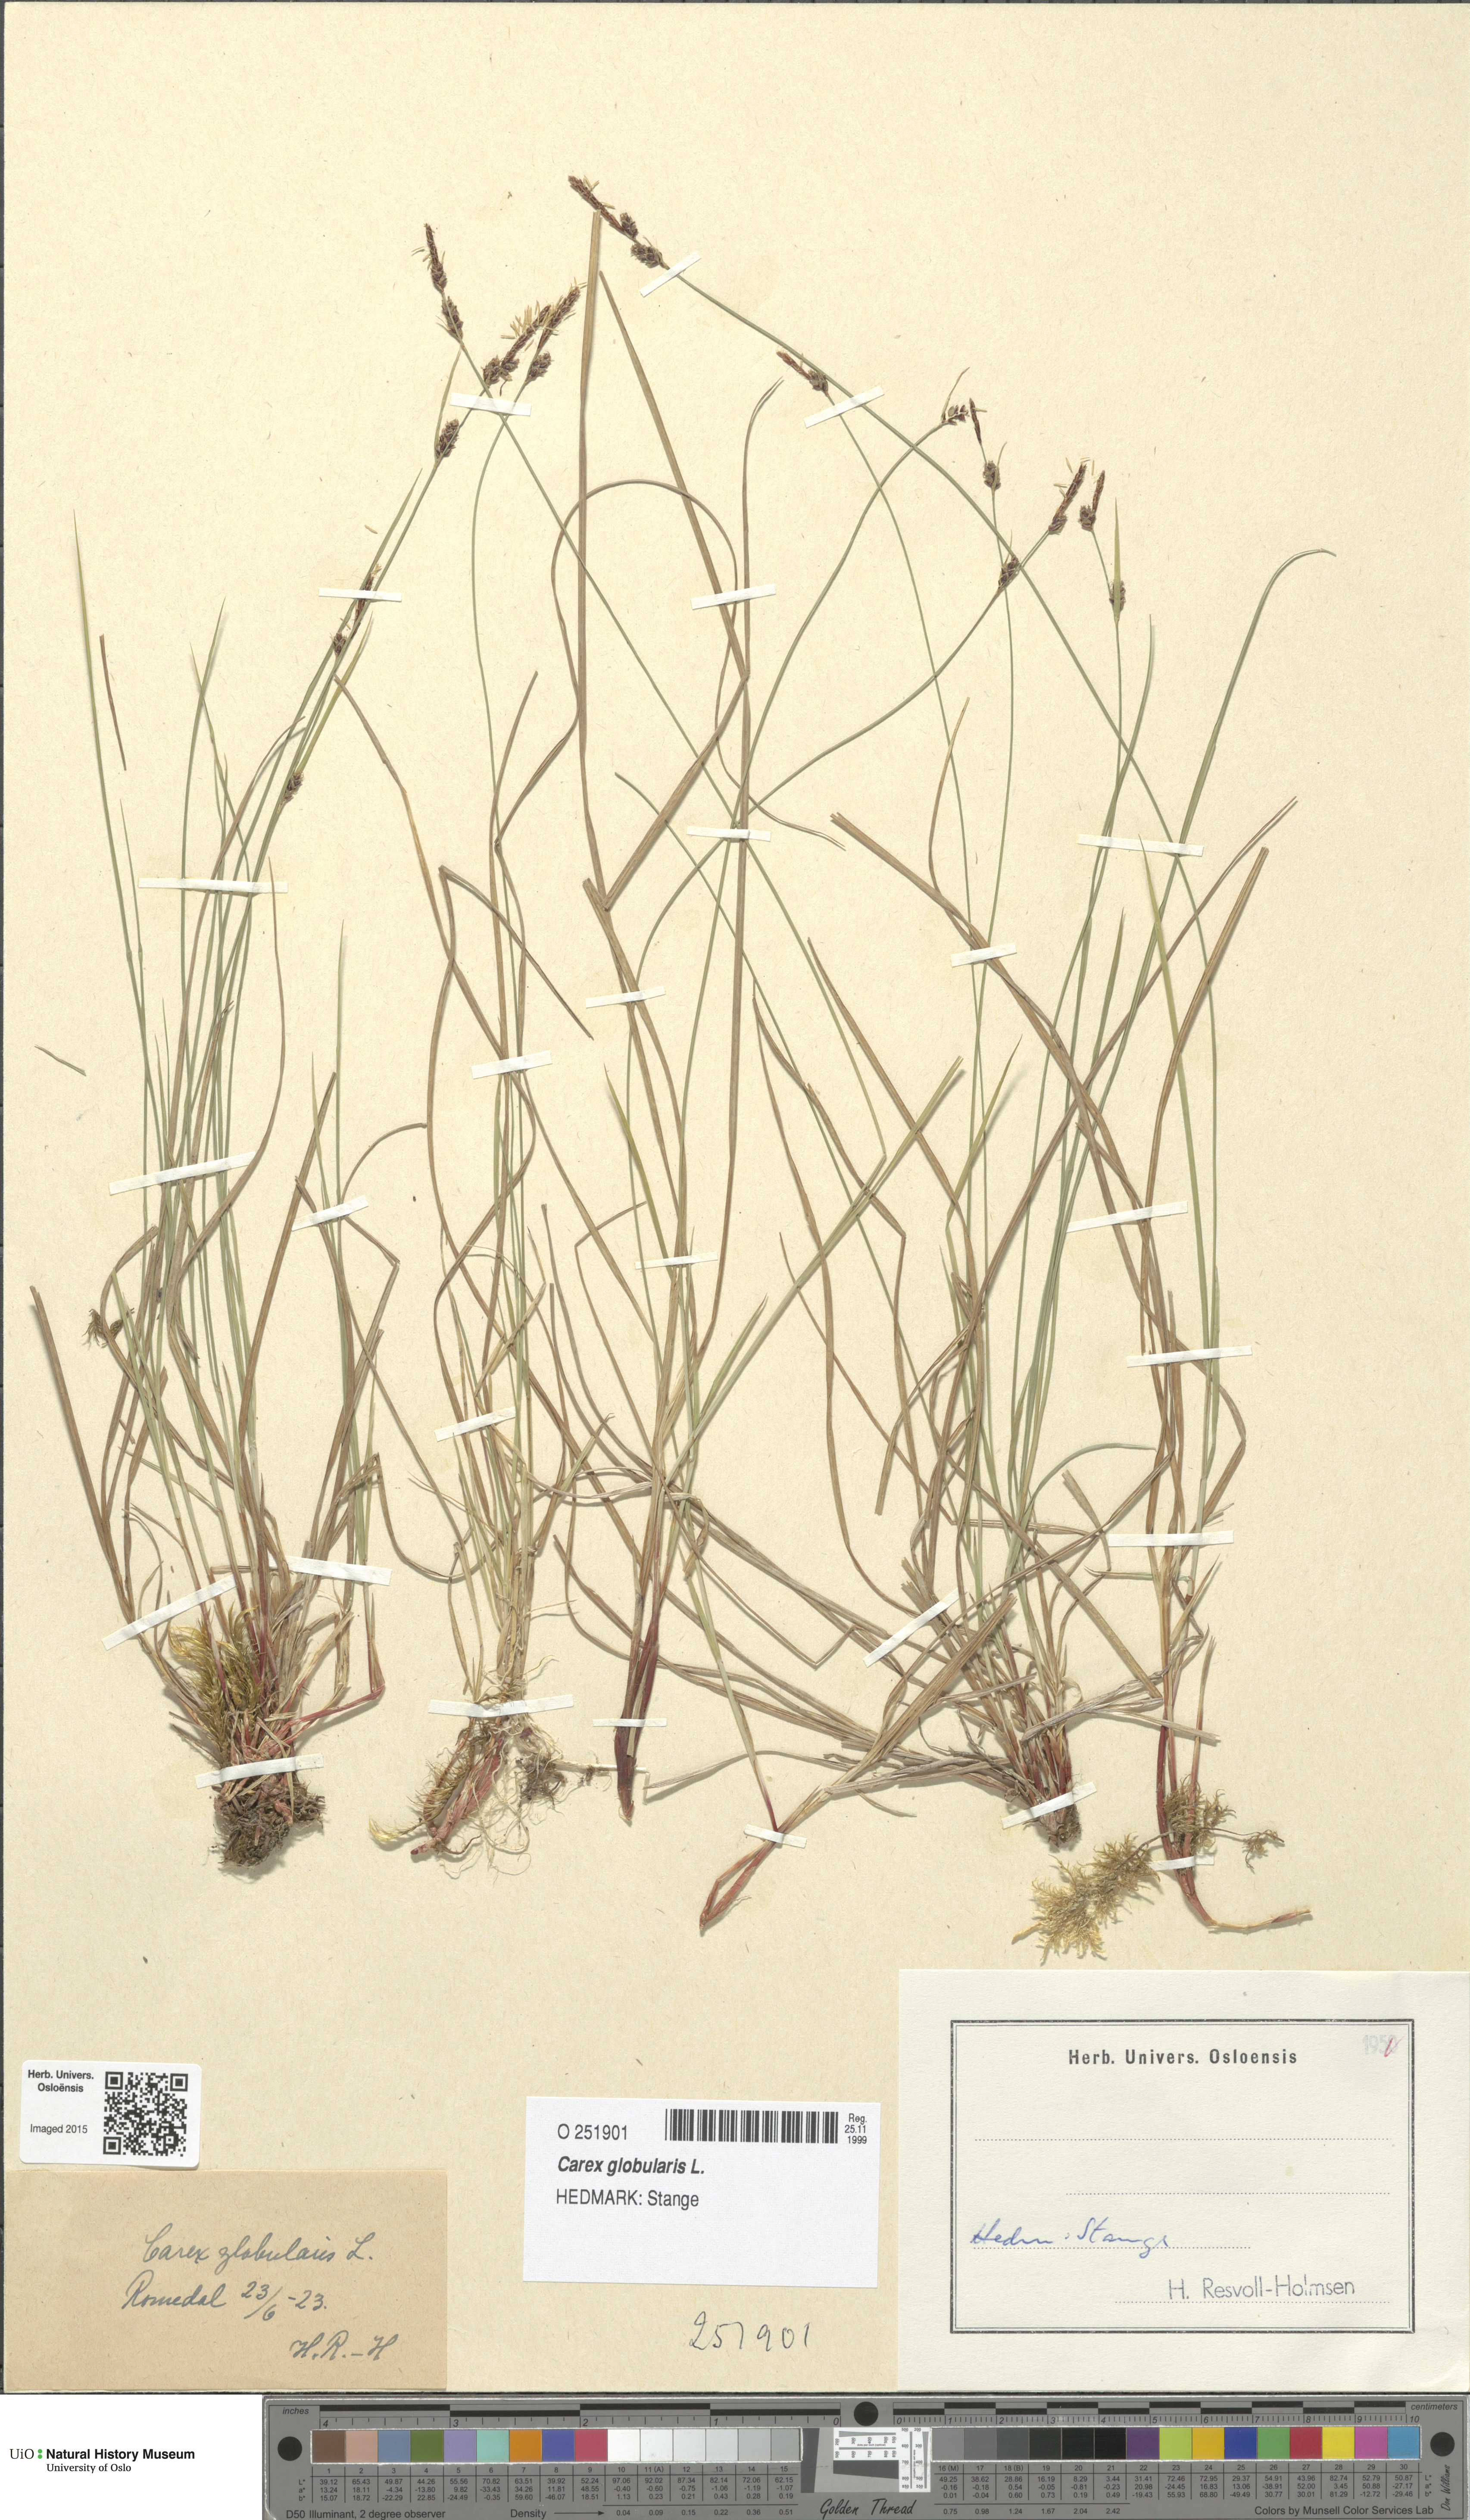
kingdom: Plantae
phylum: Tracheophyta
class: Liliopsida
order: Poales
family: Cyperaceae
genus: Carex
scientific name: Carex globularis
